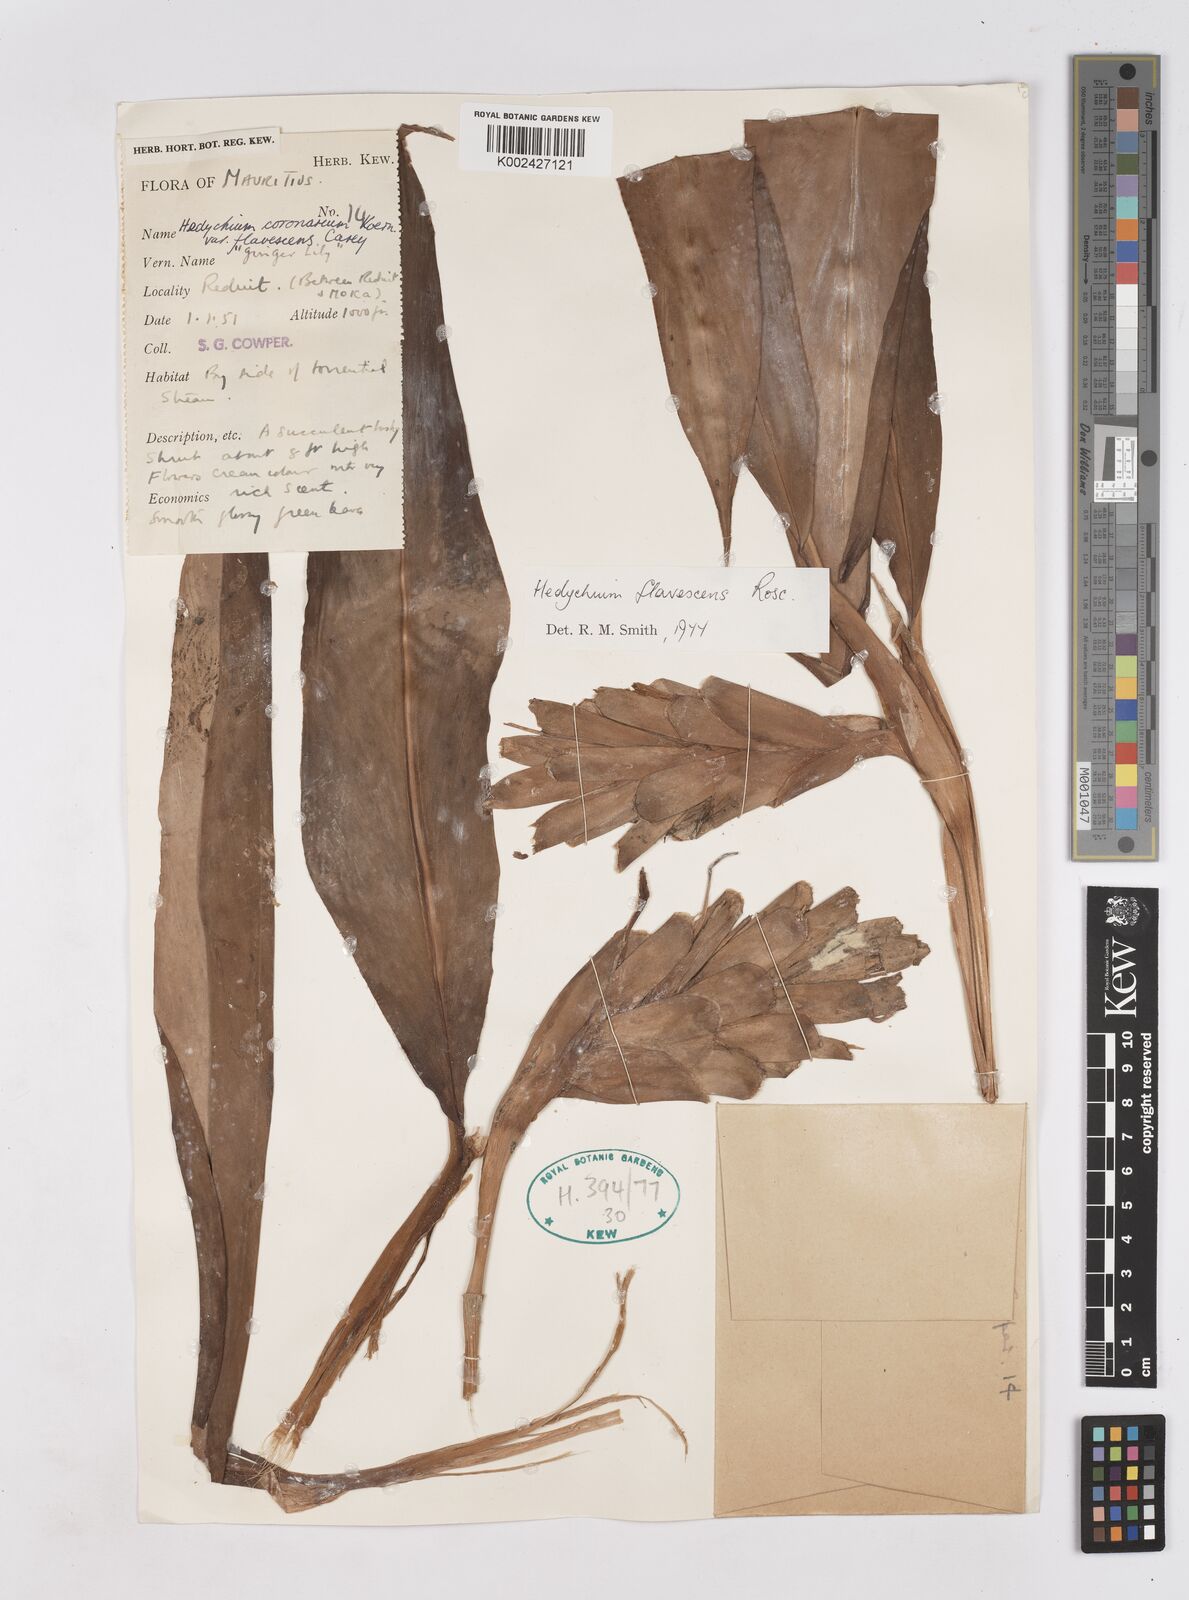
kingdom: Plantae
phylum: Tracheophyta
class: Liliopsida
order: Zingiberales
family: Zingiberaceae
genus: Hedychium
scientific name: Hedychium flavescens
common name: Yellow ginger
